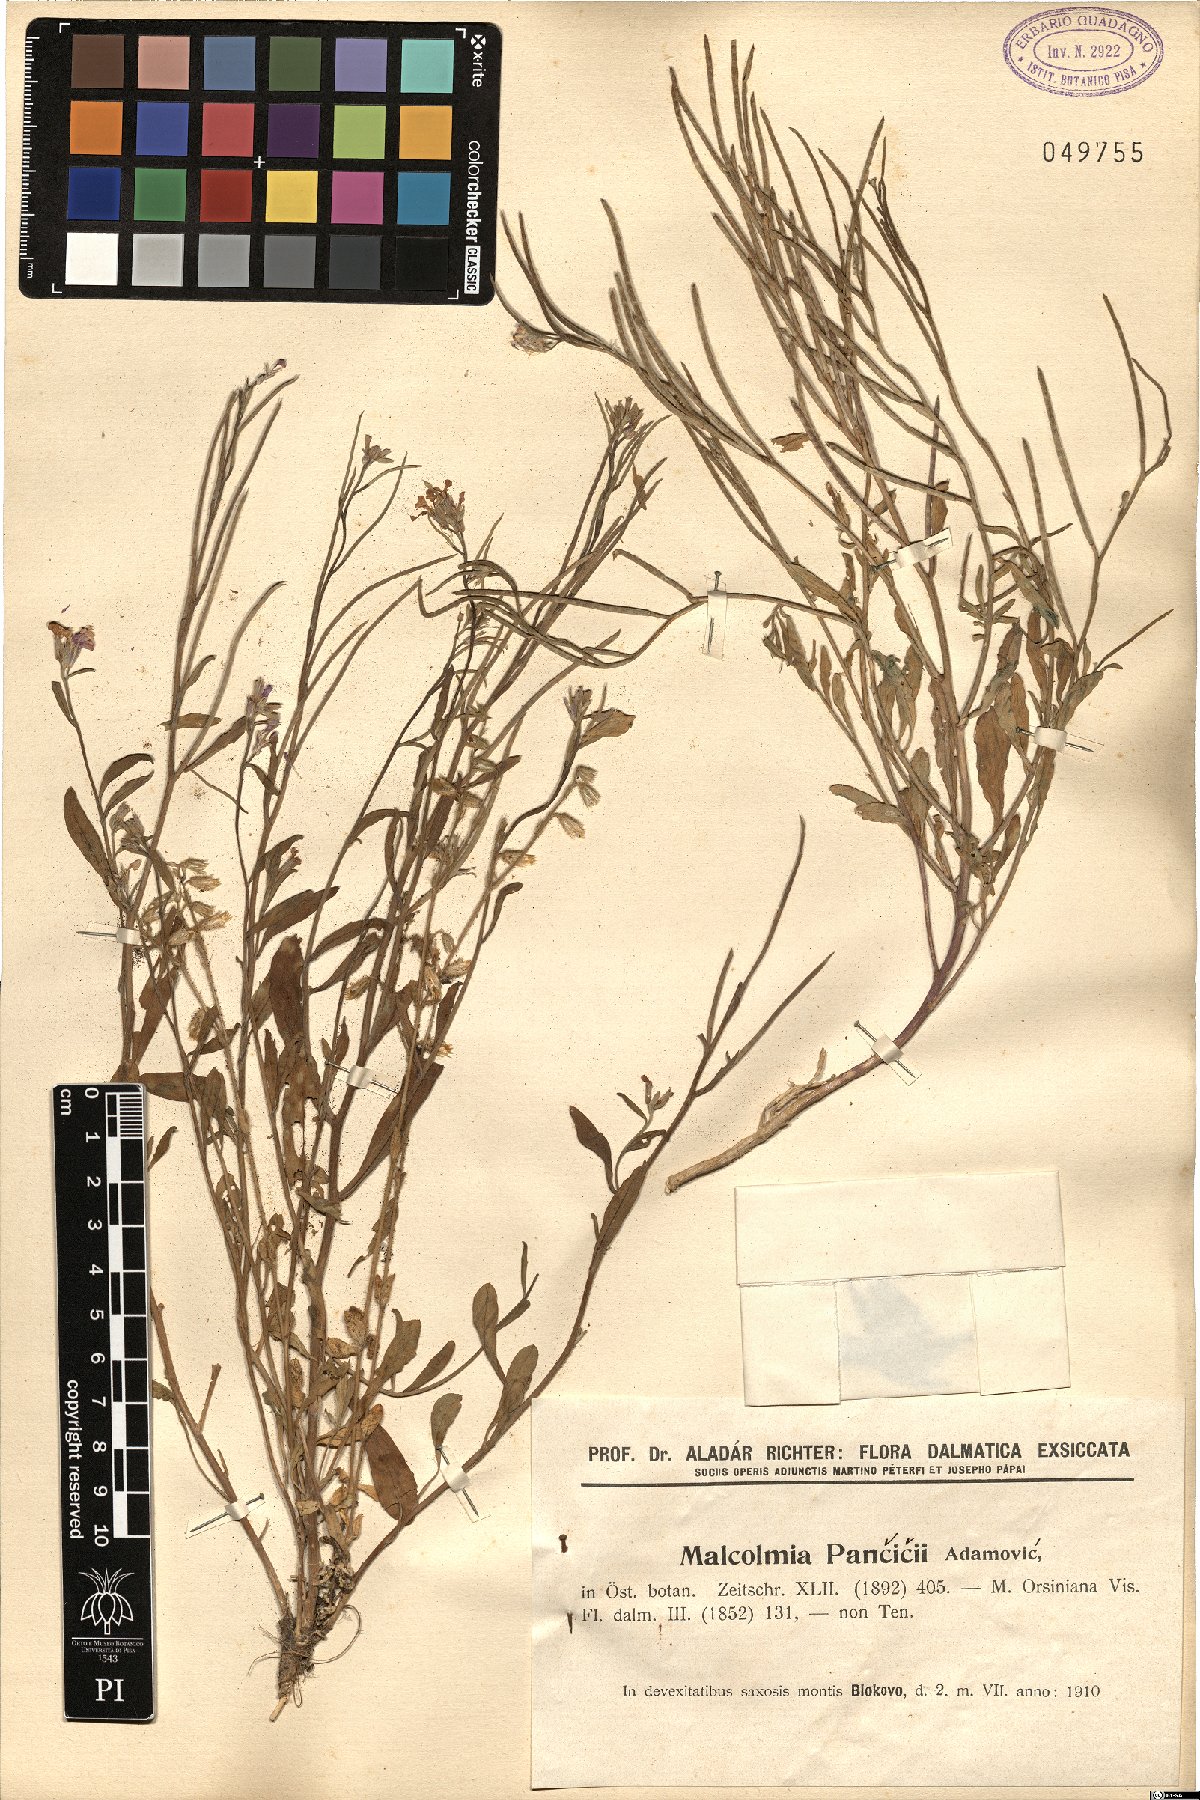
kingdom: Plantae
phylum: Tracheophyta
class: Magnoliopsida
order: Brassicales
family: Brassicaceae
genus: Malcolmia
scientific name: Malcolmia orsiniana
